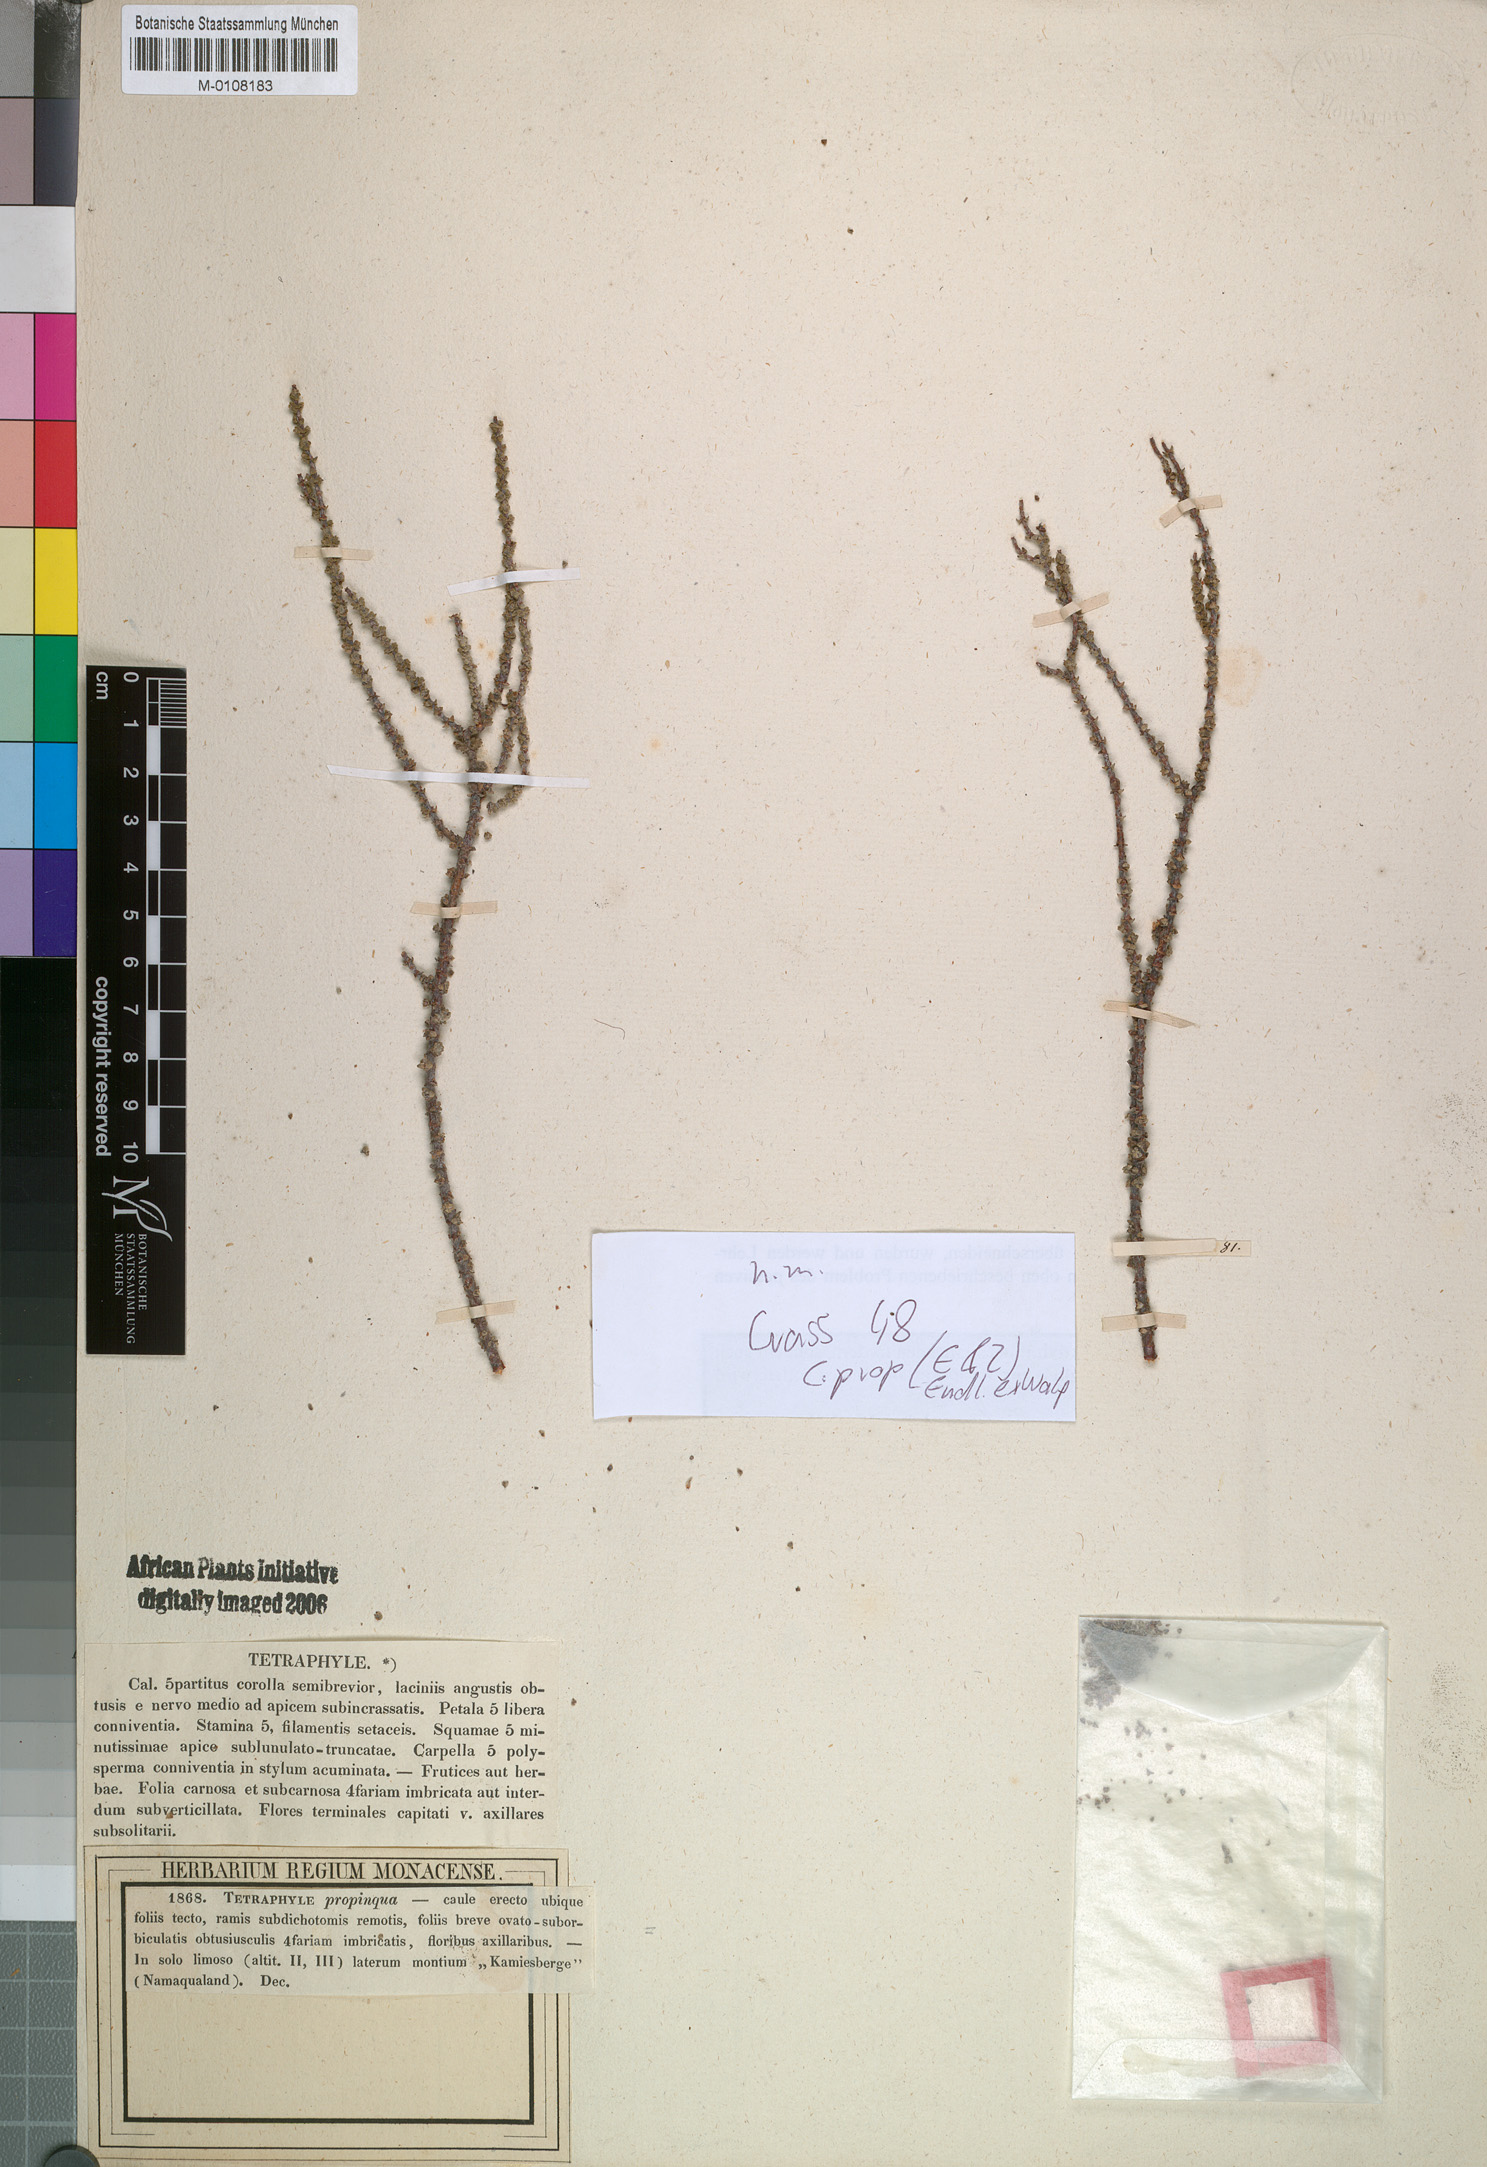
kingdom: Plantae
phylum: Tracheophyta
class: Magnoliopsida
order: Saxifragales
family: Crassulaceae
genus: Crassula
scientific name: Crassula muscosa
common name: Toy-cypress
